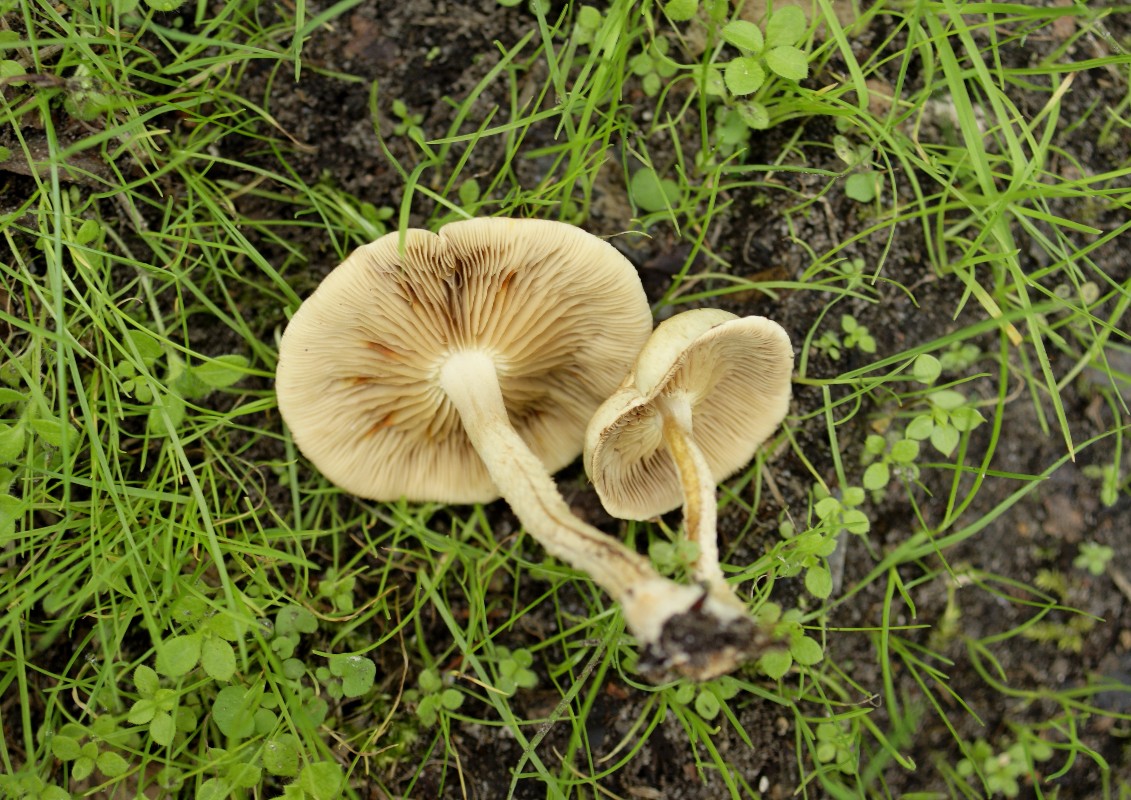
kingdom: Fungi
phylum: Basidiomycota
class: Agaricomycetes
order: Agaricales
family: Strophariaceae
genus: Pholiota
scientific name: Pholiota gummosa
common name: grøngul skælhat
